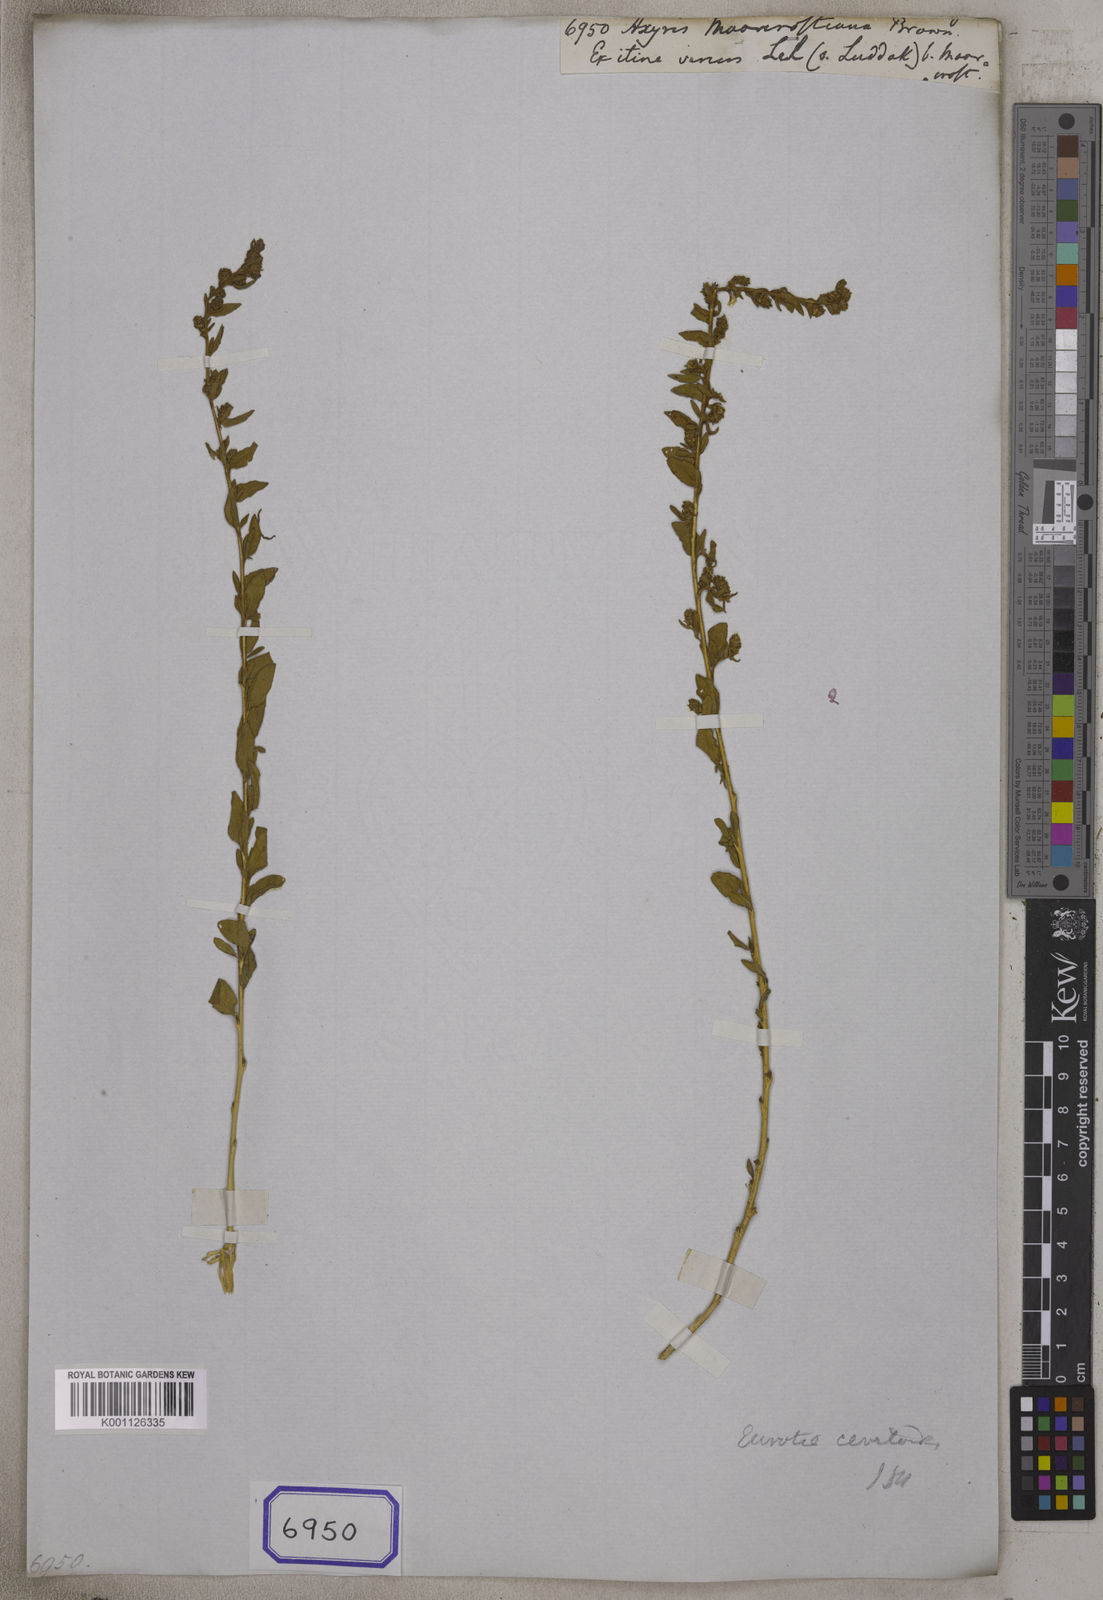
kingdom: Plantae
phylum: Tracheophyta
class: Magnoliopsida
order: Caryophyllales
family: Amaranthaceae
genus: Krascheninnikovia
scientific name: Krascheninnikovia ceratoides
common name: Pamirian winterfat
